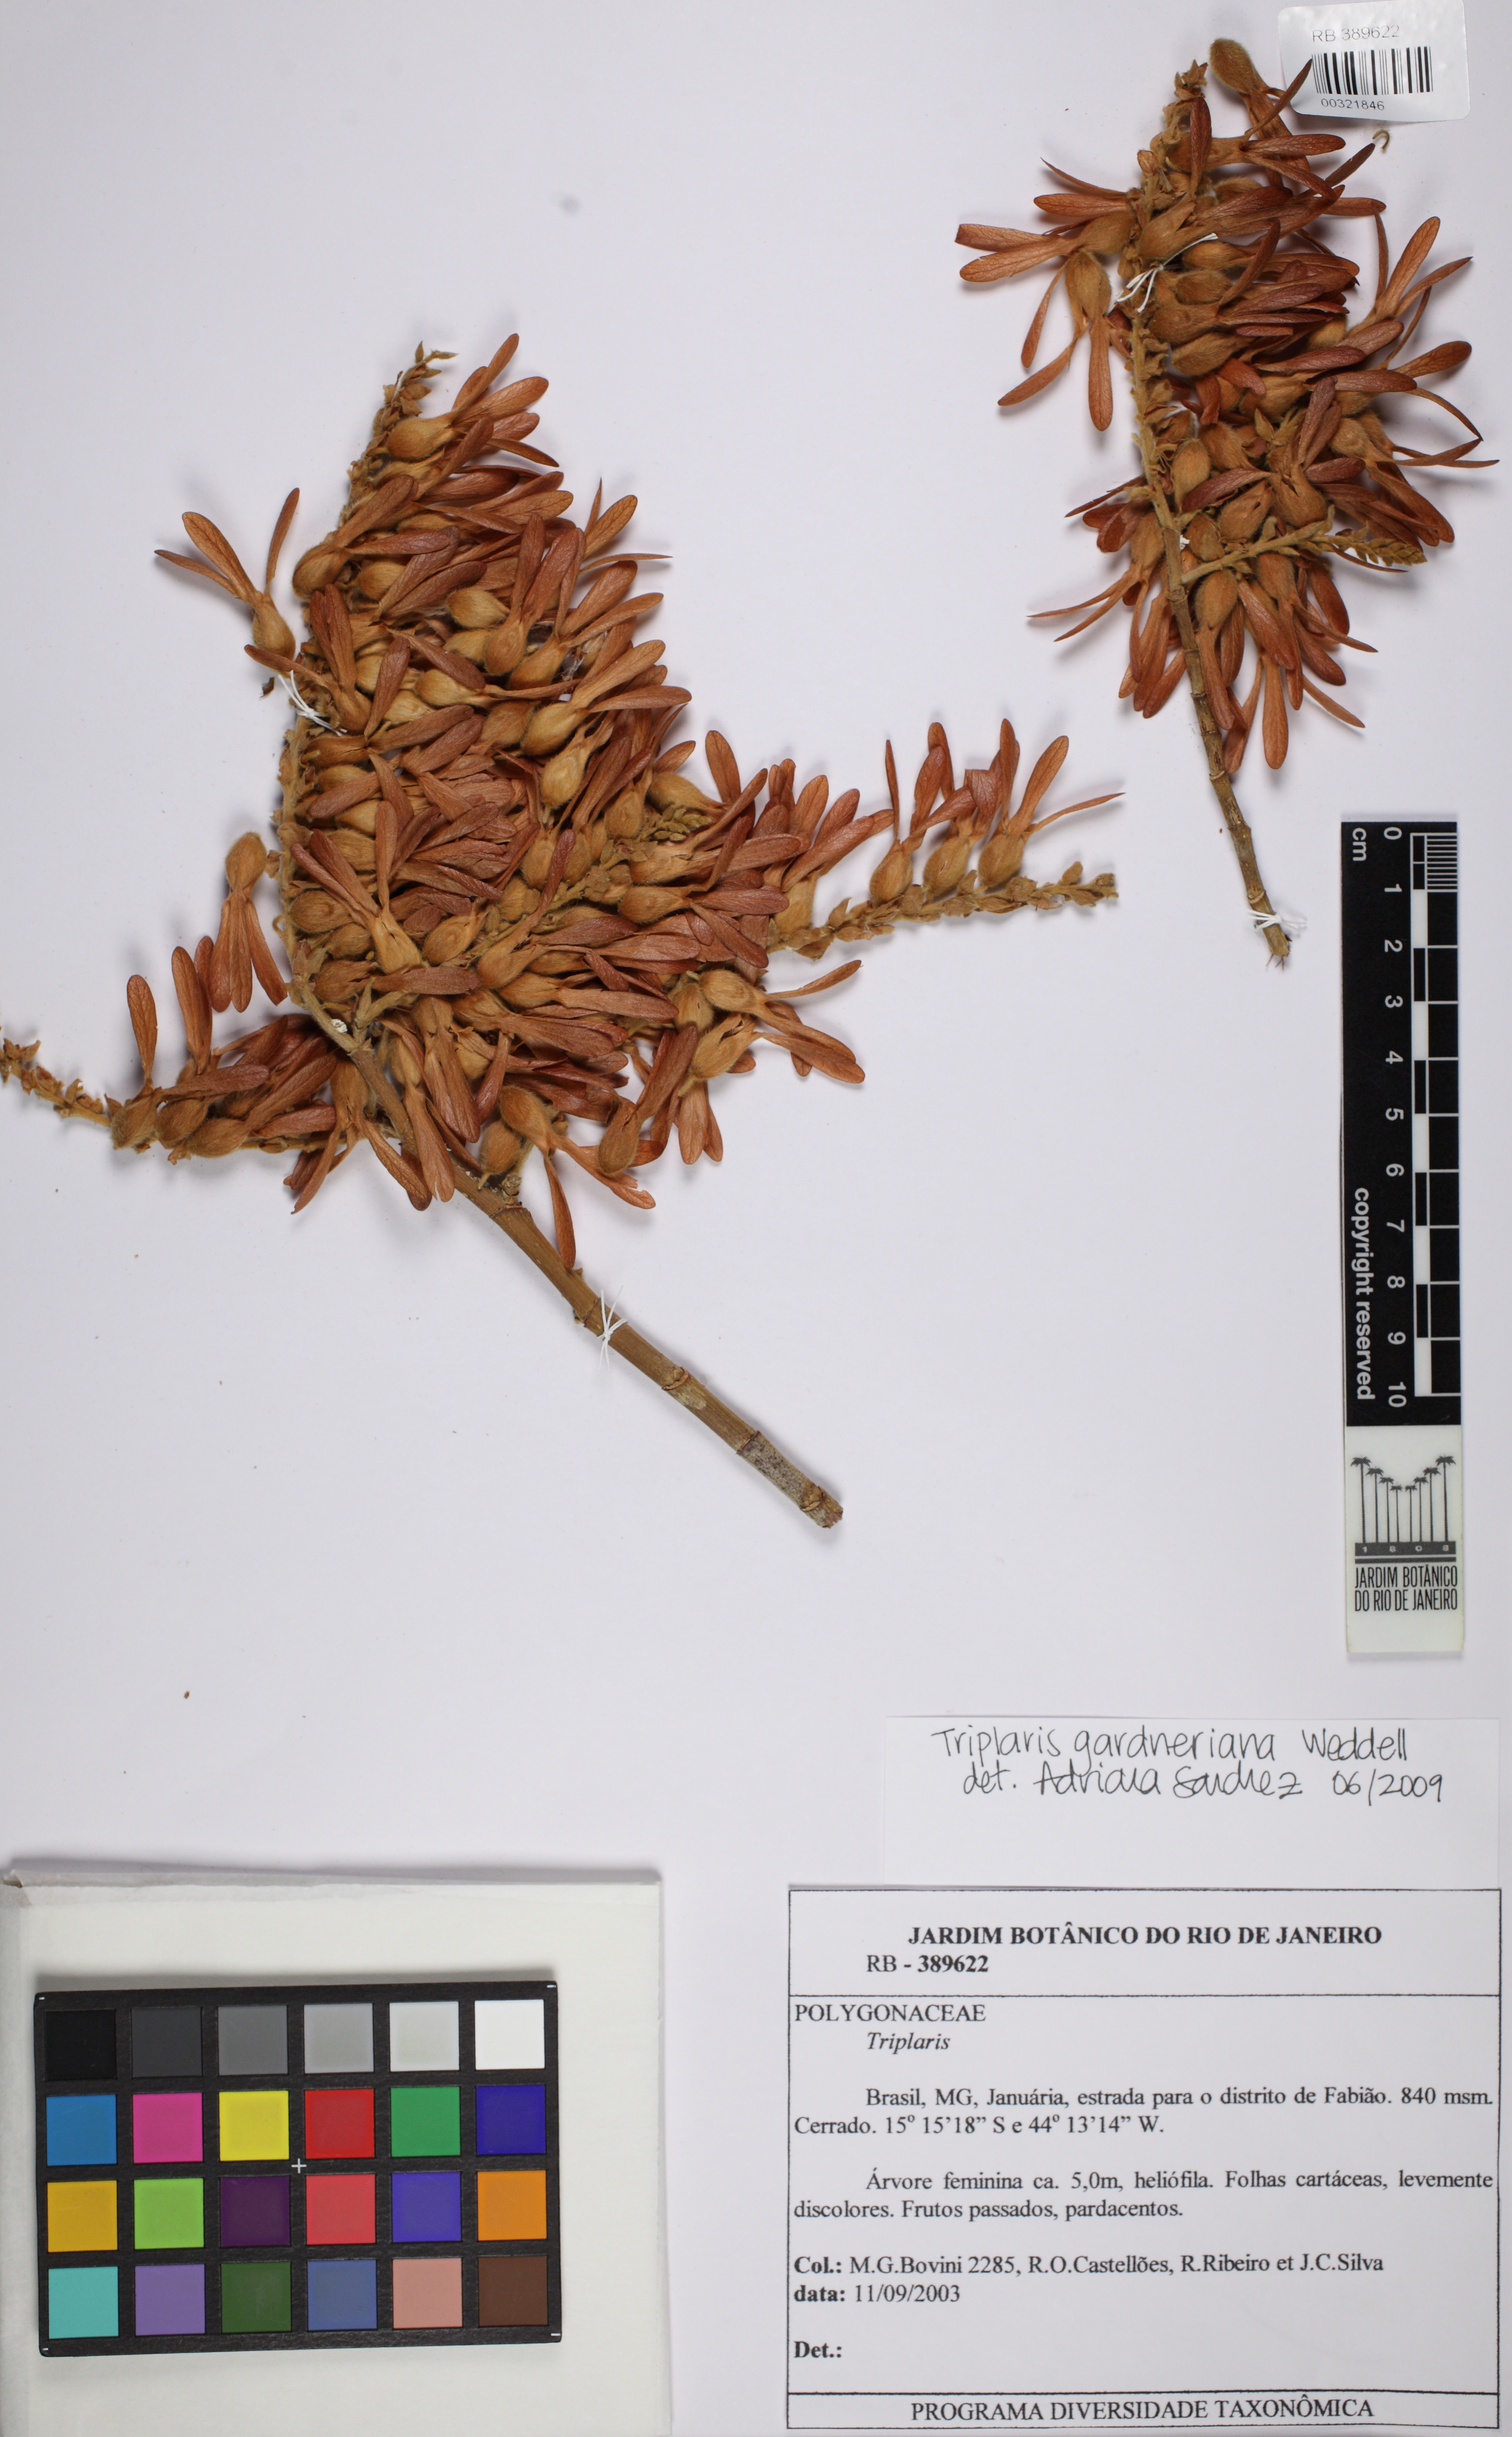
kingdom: Plantae
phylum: Tracheophyta
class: Magnoliopsida
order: Caryophyllales
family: Polygonaceae
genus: Triplaris
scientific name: Triplaris gardneriana
